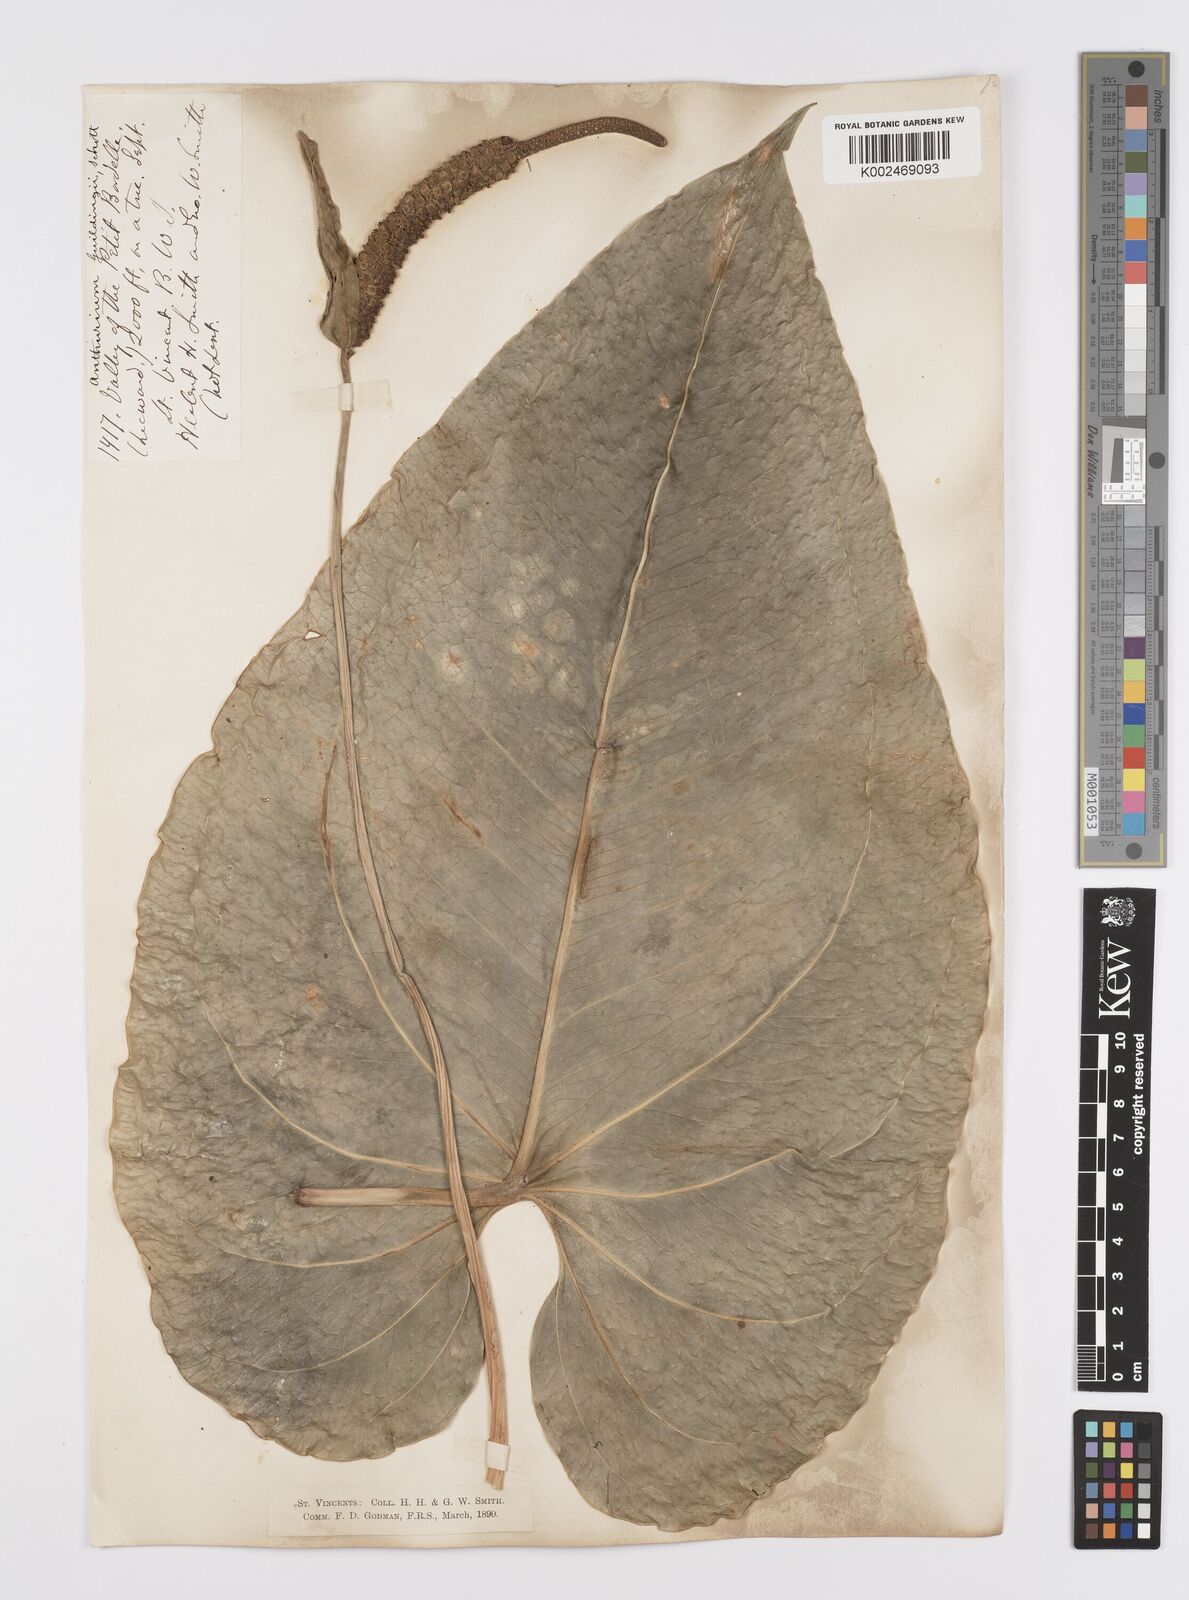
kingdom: Plantae
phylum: Tracheophyta
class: Liliopsida
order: Alismatales
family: Araceae
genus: Anthurium
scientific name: Anthurium
